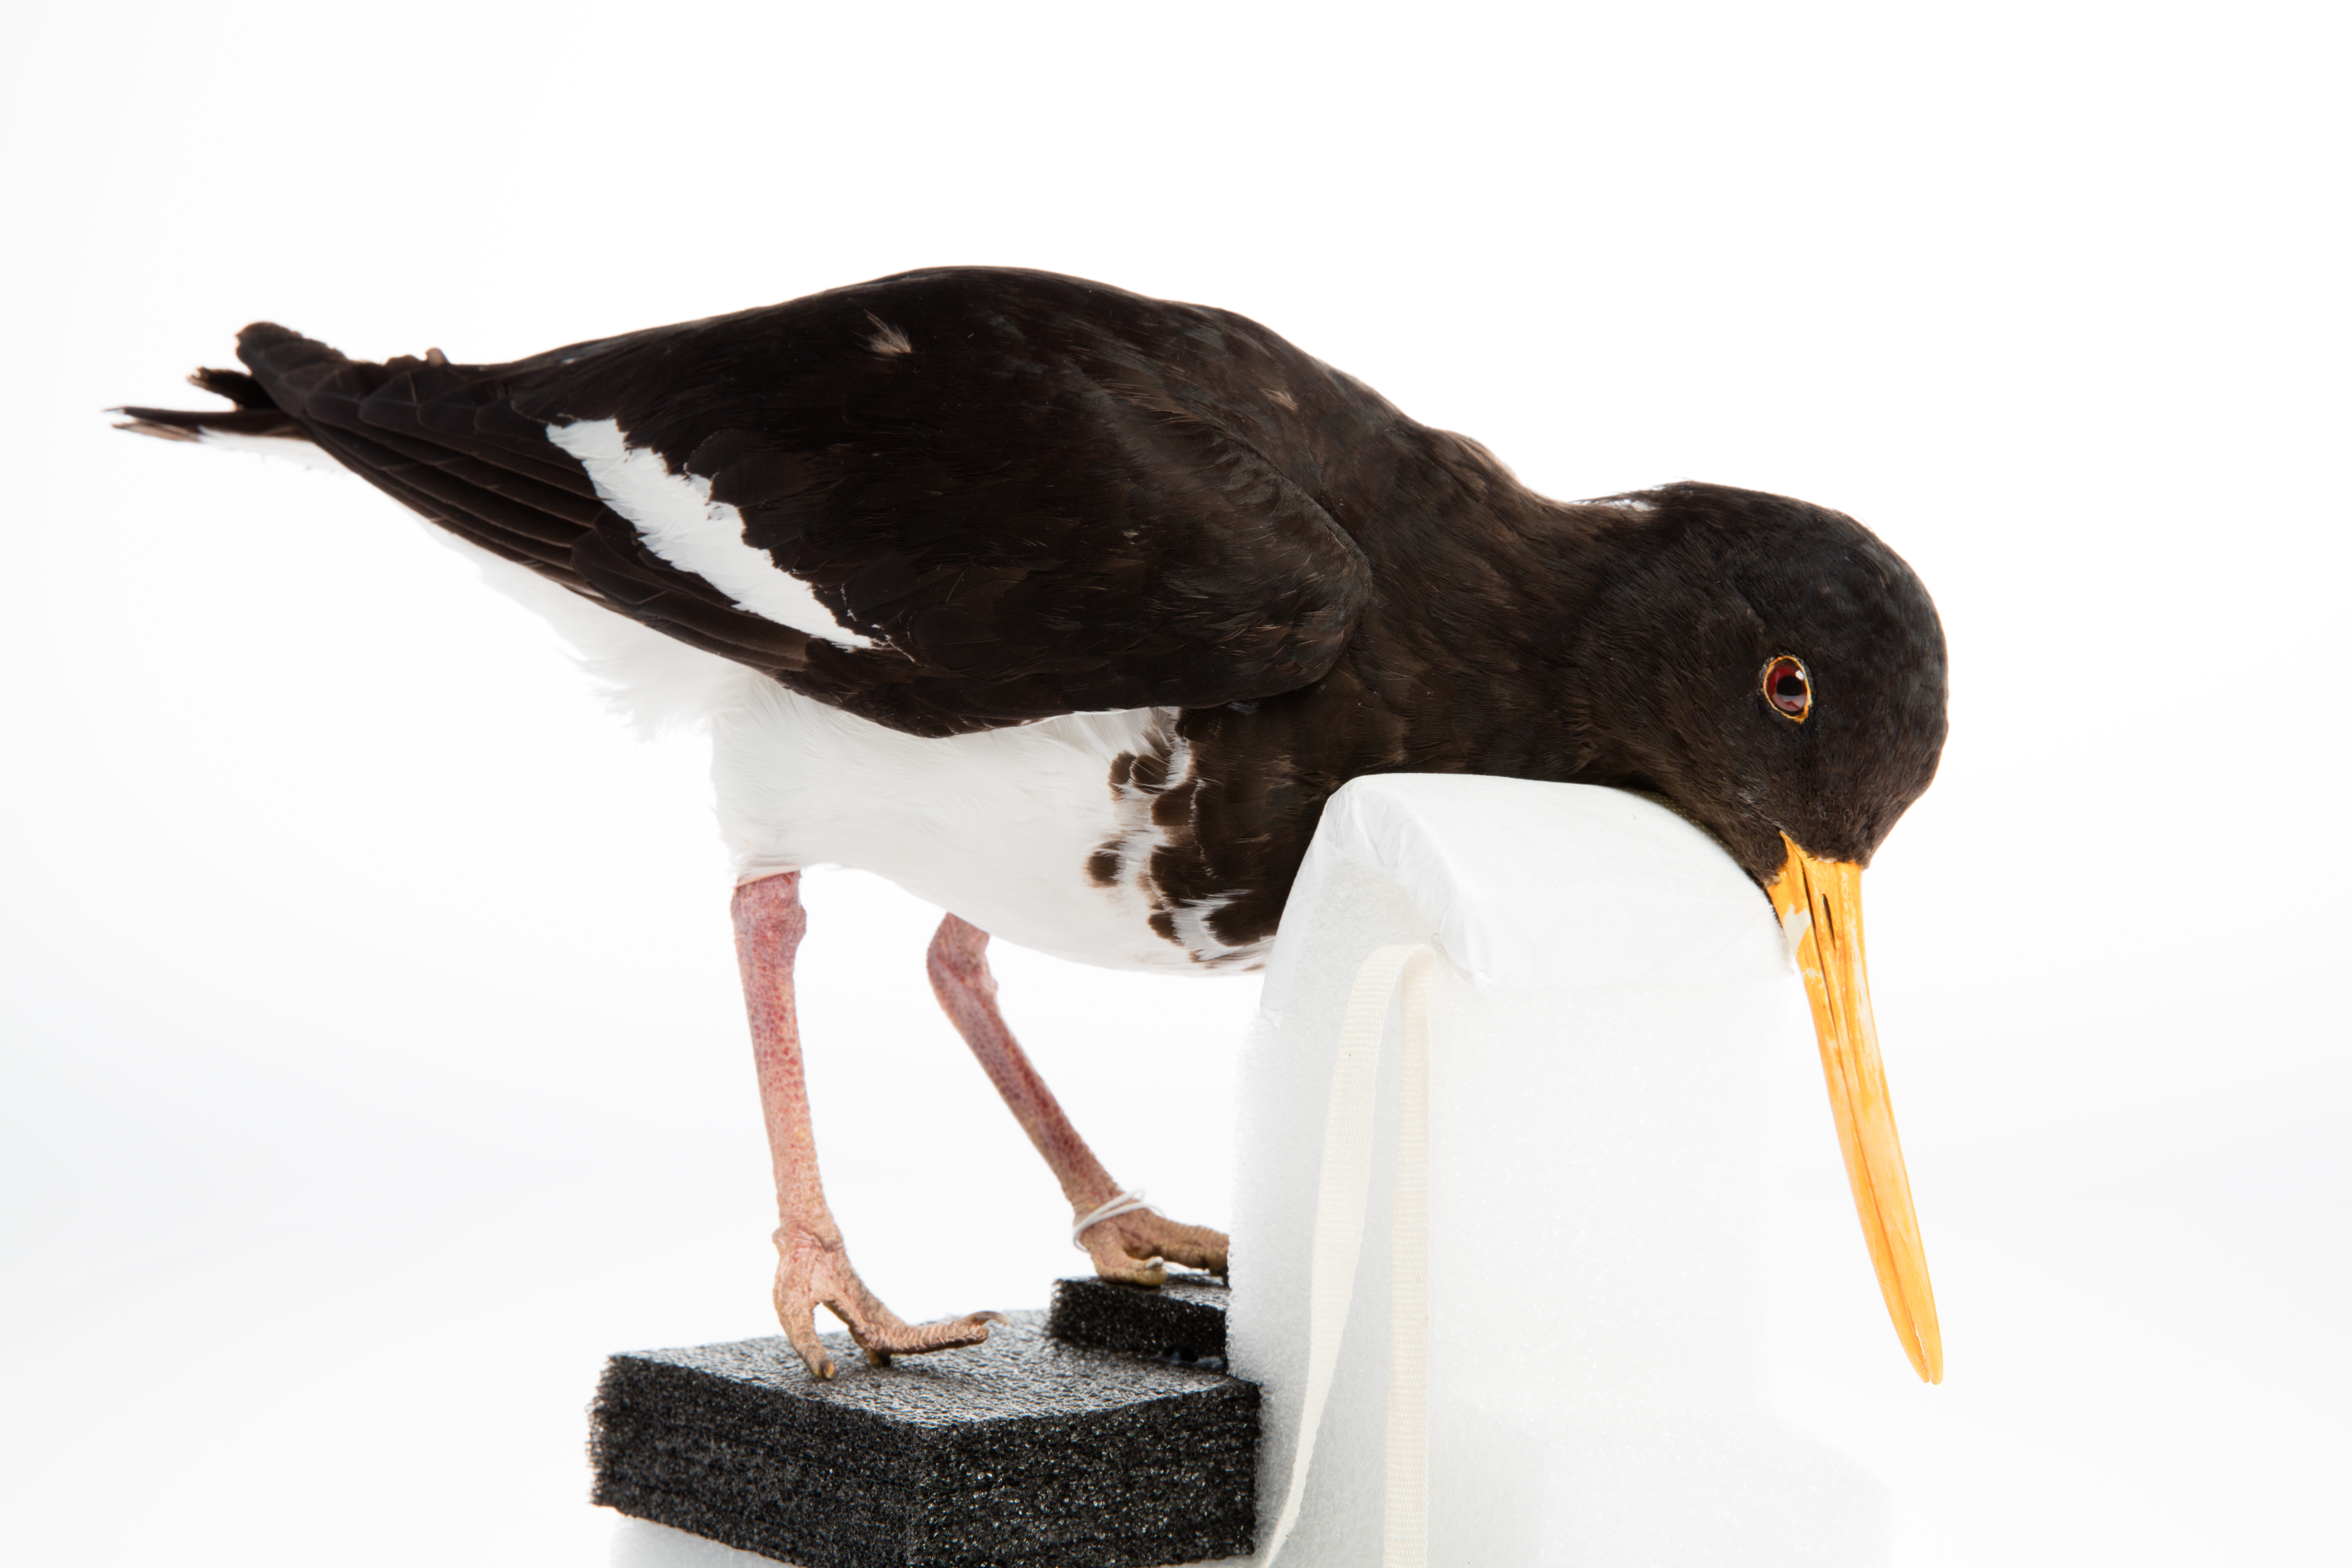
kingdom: Animalia
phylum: Chordata
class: Aves
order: Charadriiformes
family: Haematopodidae
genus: Haematopus
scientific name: Haematopus finschi
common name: South island oystercatcher
